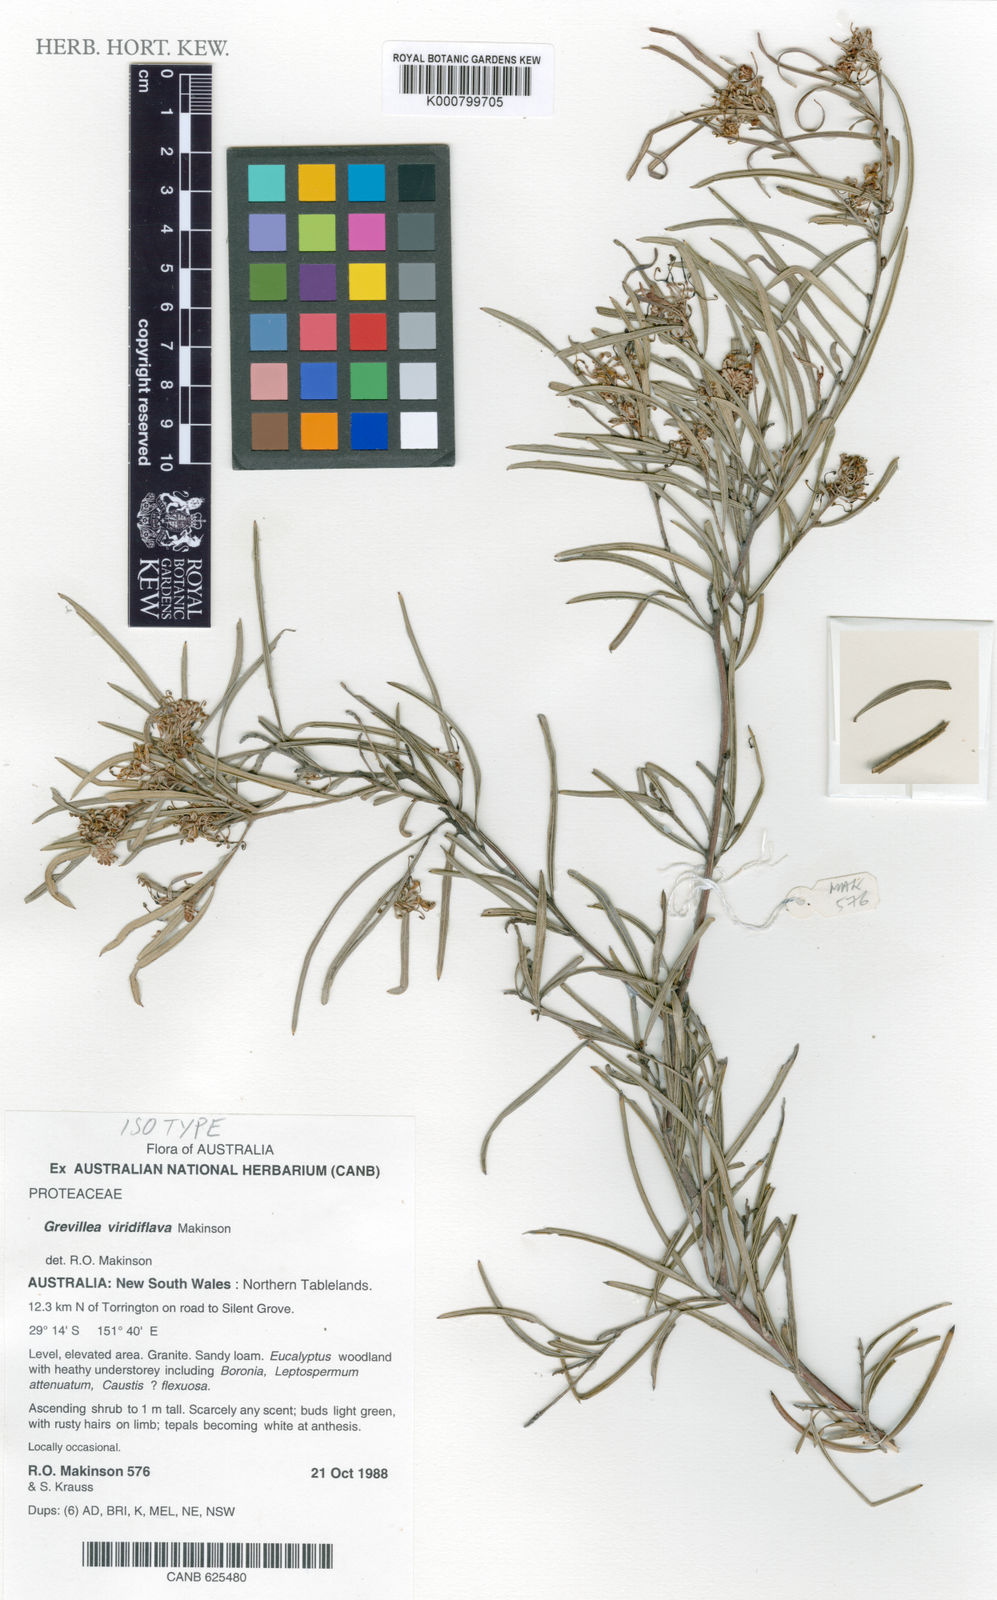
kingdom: Plantae
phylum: Tracheophyta
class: Magnoliopsida
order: Proteales
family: Proteaceae
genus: Grevillea
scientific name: Grevillea viridiflava
